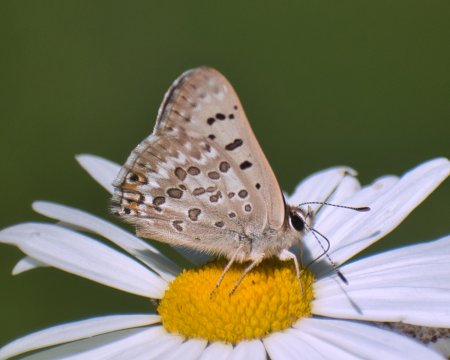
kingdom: Animalia
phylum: Arthropoda
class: Insecta
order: Lepidoptera
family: Lycaenidae
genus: Lycaena
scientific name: Lycaena editha
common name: Edith's Copper
